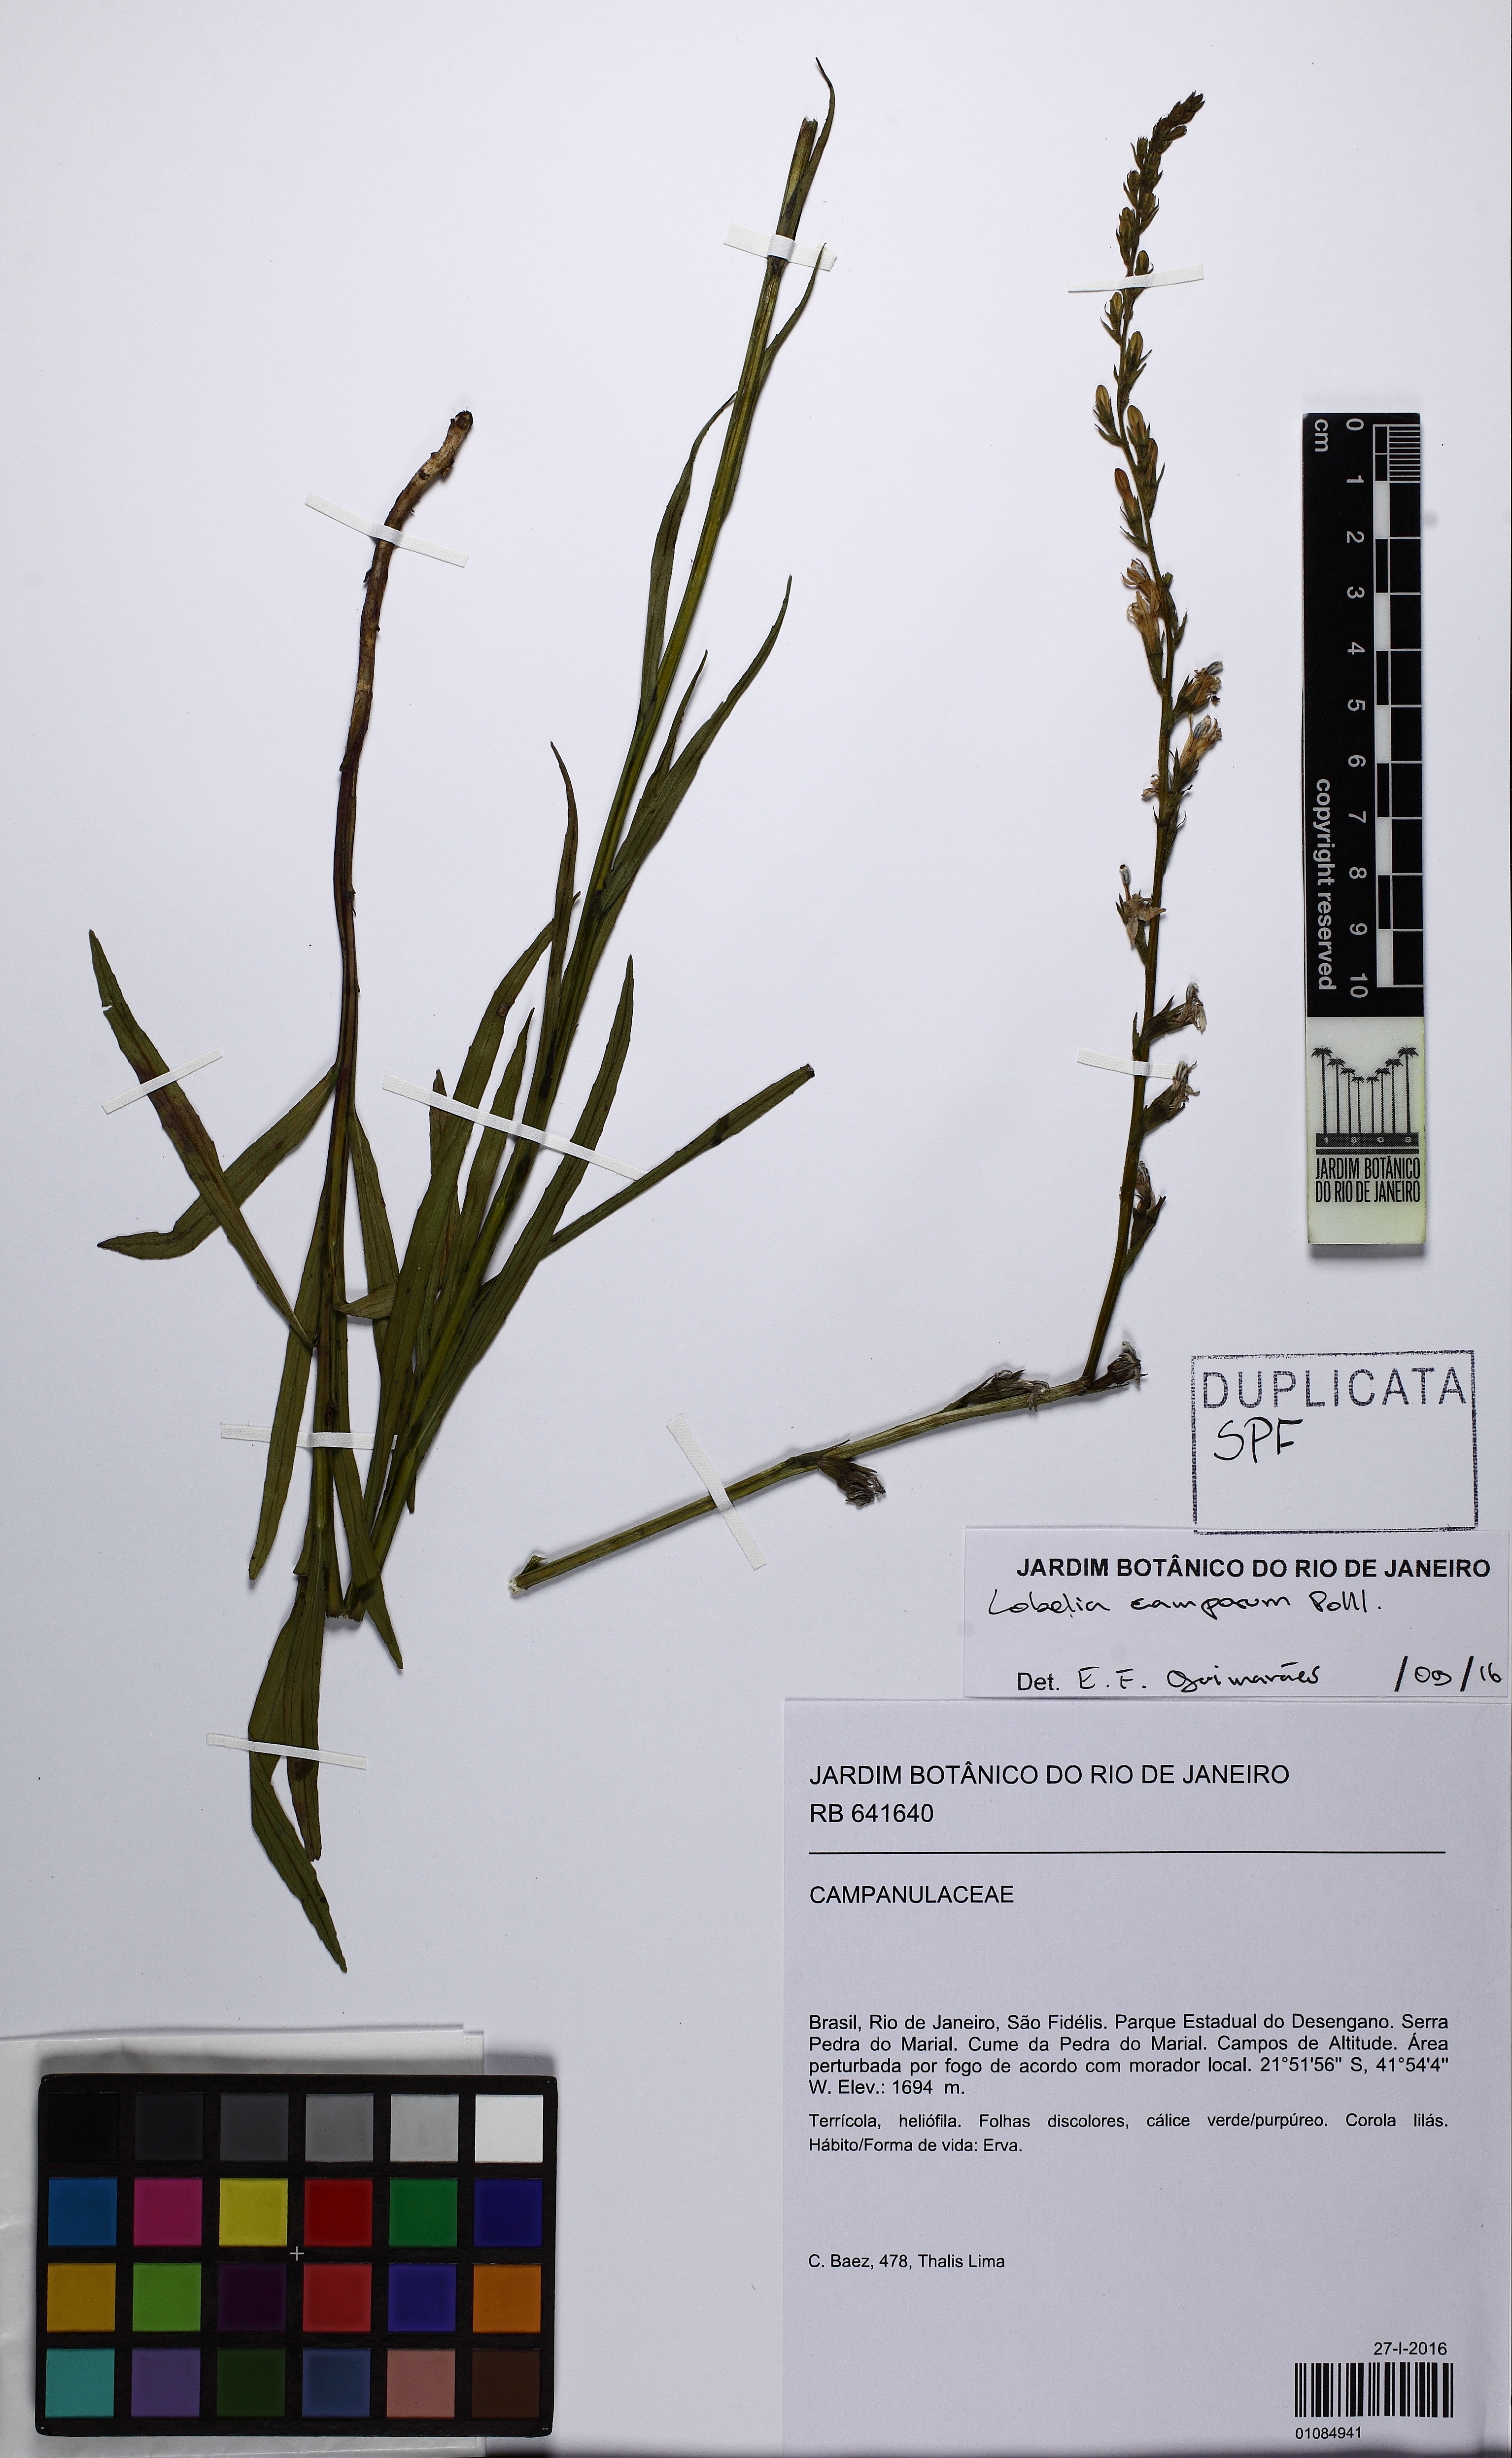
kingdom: Plantae
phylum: Tracheophyta
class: Magnoliopsida
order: Asterales
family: Campanulaceae
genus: Lobelia
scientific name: Lobelia camporum
